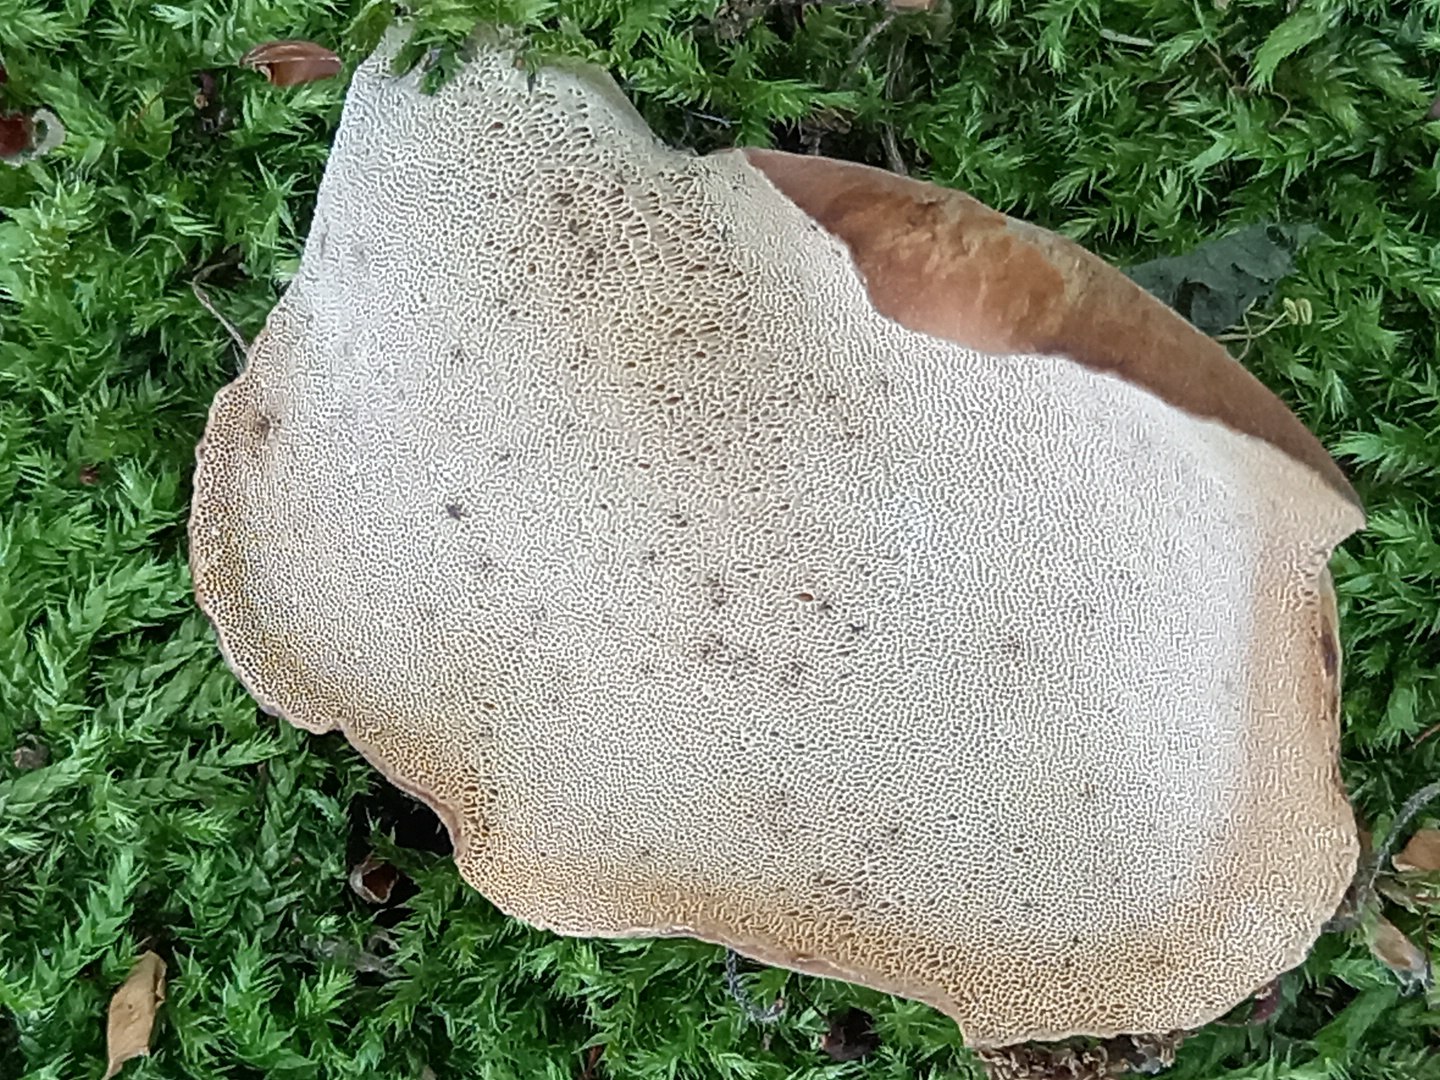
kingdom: Fungi
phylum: Basidiomycota
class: Agaricomycetes
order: Polyporales
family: Polyporaceae
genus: Cerioporus
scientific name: Cerioporus varius
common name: foranderlig stilkporesvamp
